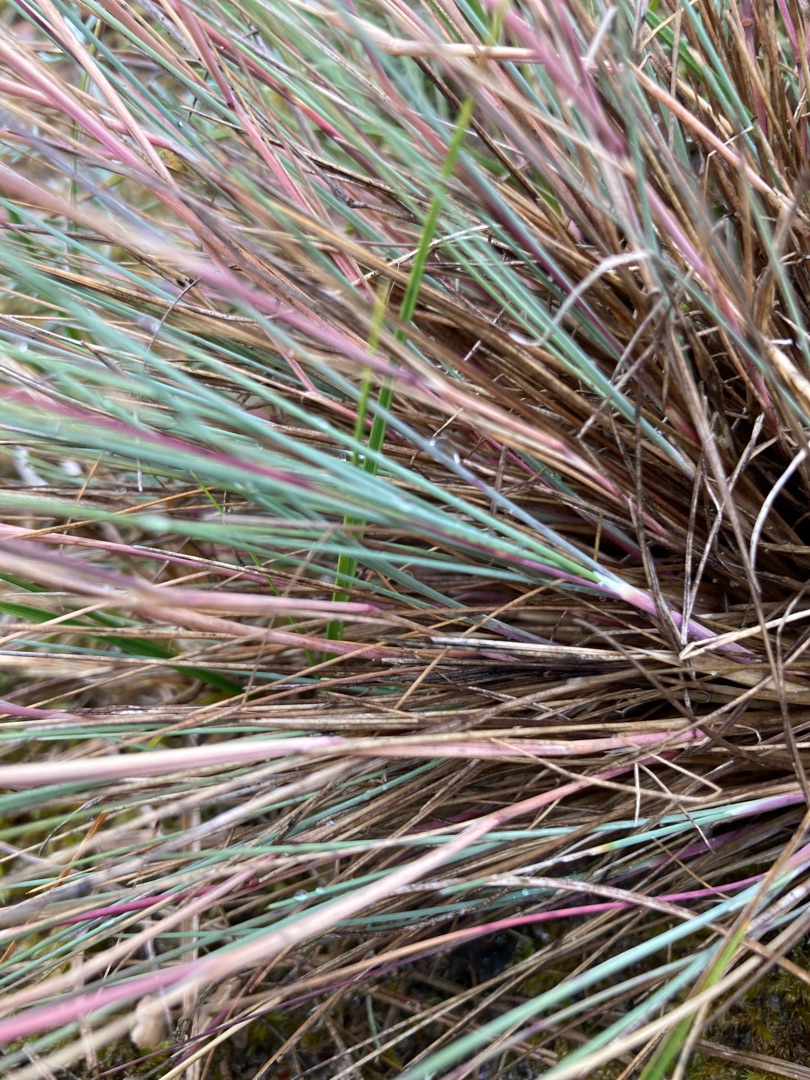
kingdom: Plantae
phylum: Tracheophyta
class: Liliopsida
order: Poales
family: Poaceae
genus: Corynephorus
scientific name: Corynephorus canescens
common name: Sandskæg
